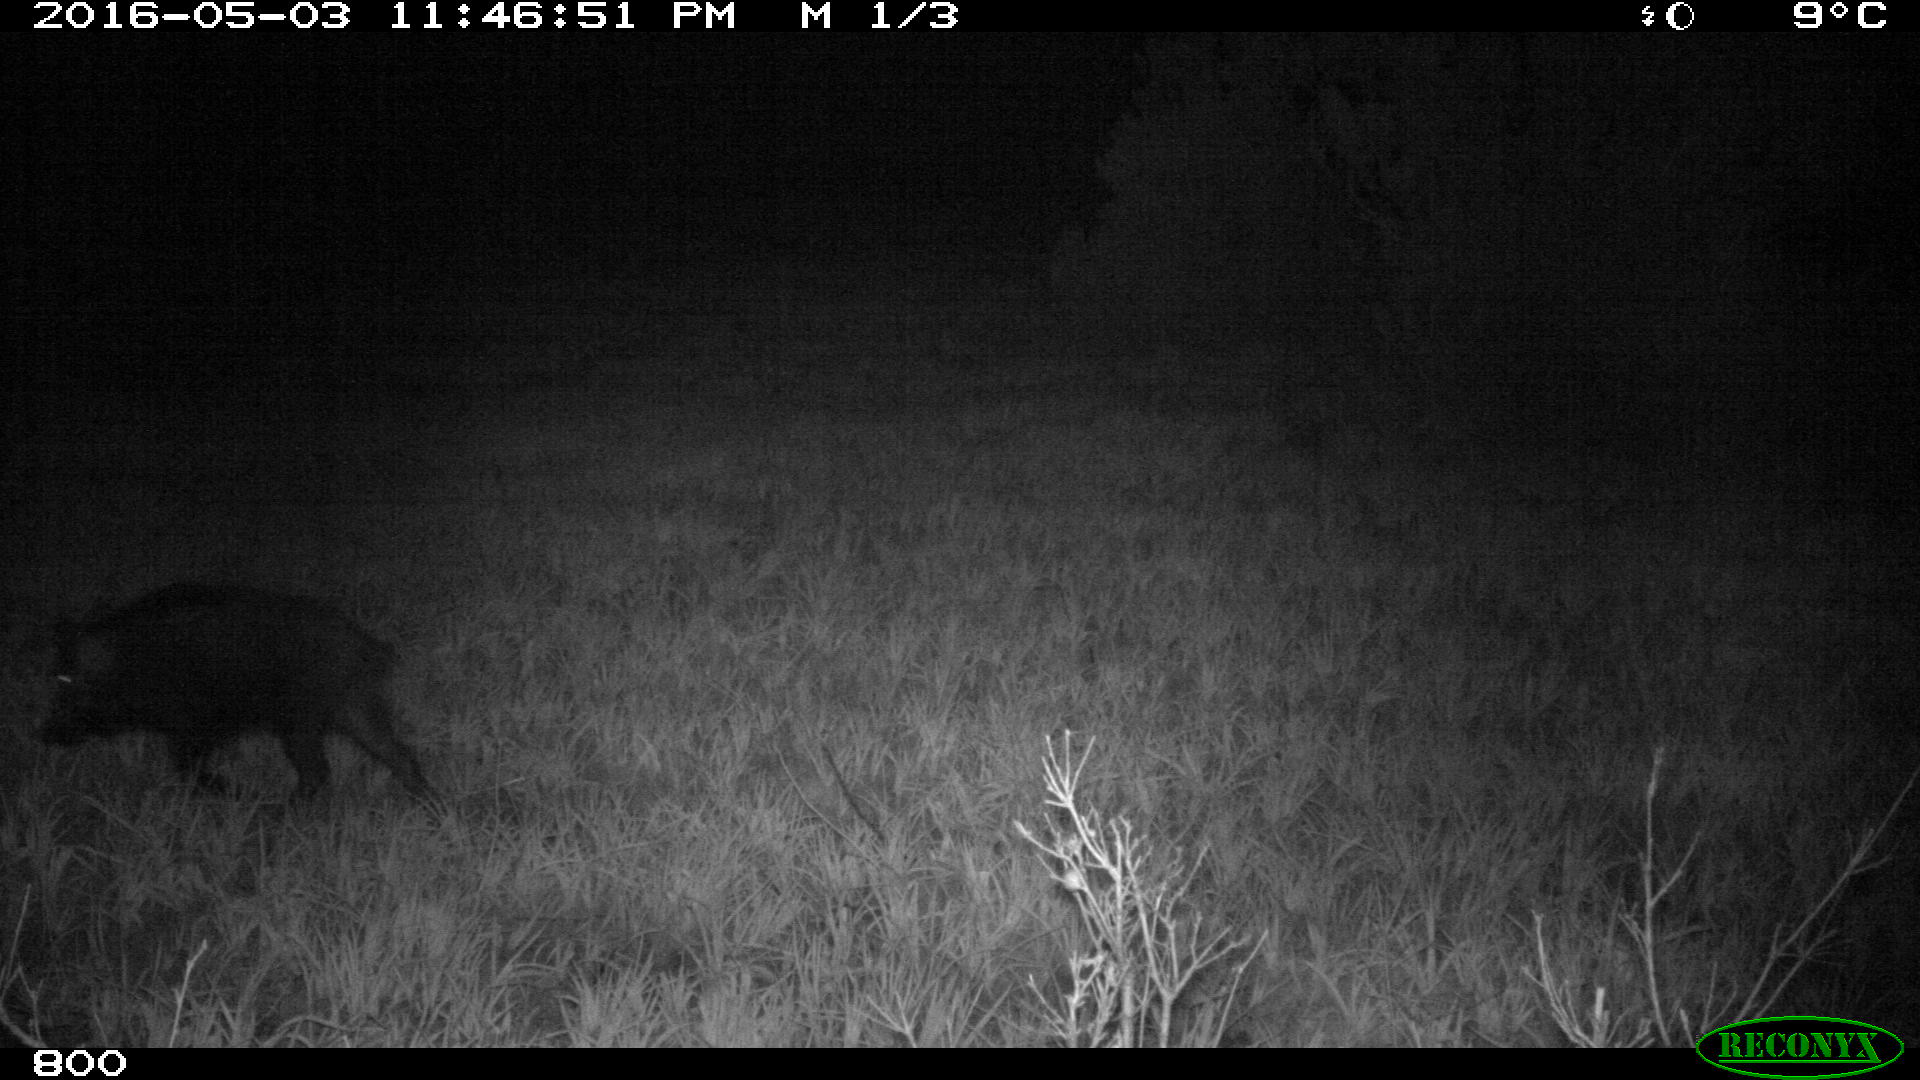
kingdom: Animalia
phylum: Chordata
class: Mammalia
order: Artiodactyla
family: Suidae
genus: Sus
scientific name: Sus scrofa
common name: Wild boar
